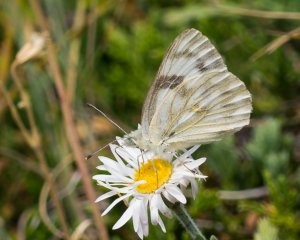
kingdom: Animalia
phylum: Arthropoda
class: Insecta
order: Lepidoptera
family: Pieridae
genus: Pontia
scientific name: Pontia occidentalis
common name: Western White
